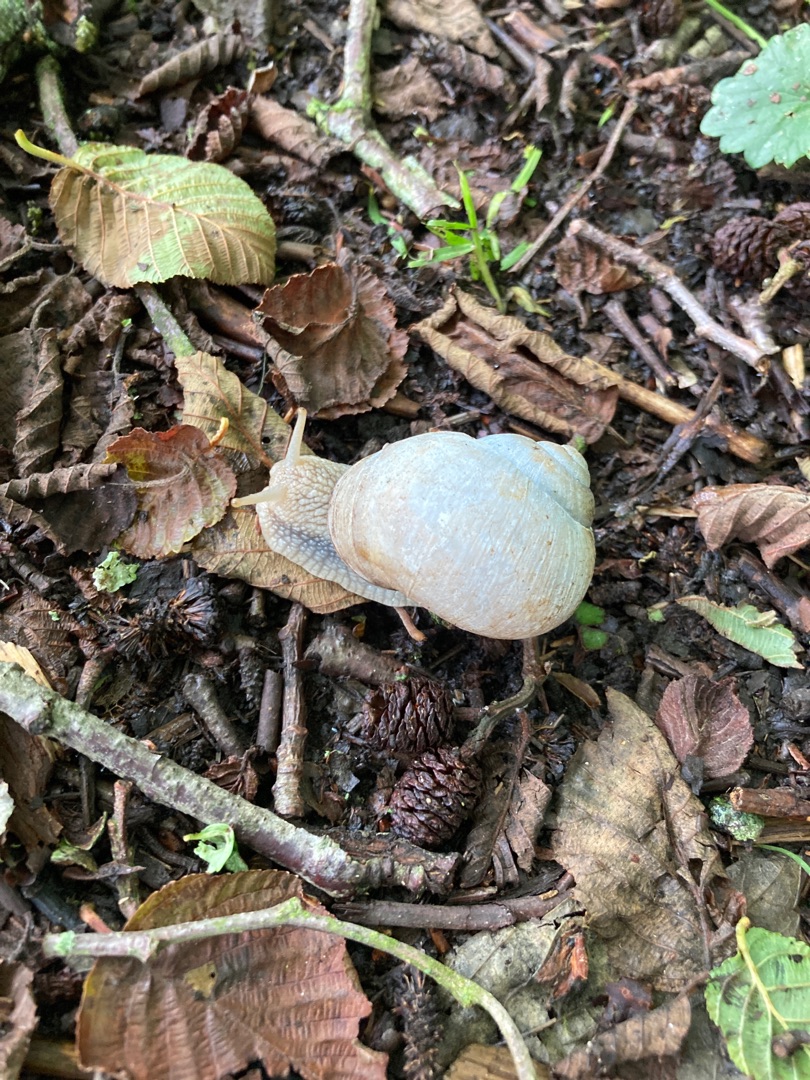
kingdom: Animalia
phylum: Mollusca
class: Gastropoda
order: Stylommatophora
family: Helicidae
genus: Helix
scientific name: Helix pomatia
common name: Vinbjergsnegl
